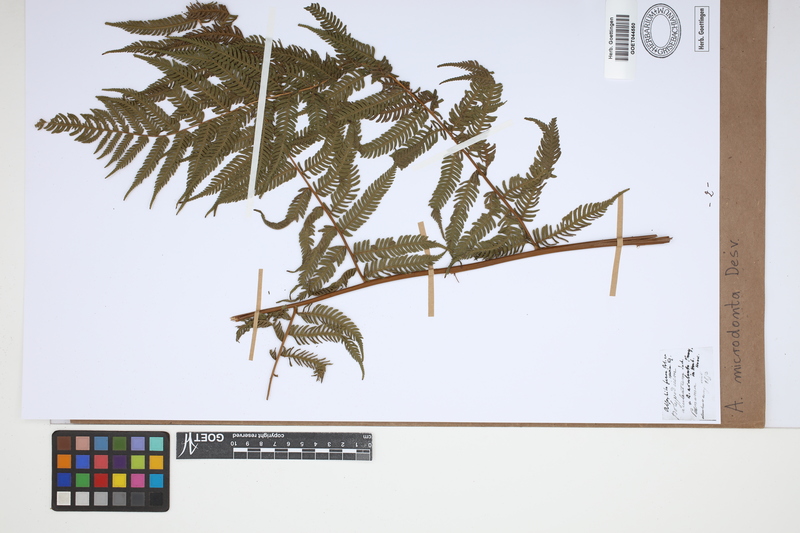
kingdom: Plantae
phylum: Tracheophyta
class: Polypodiopsida
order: Cyatheales
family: Cyatheaceae
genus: Cyathea
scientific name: Cyathea microdonta
